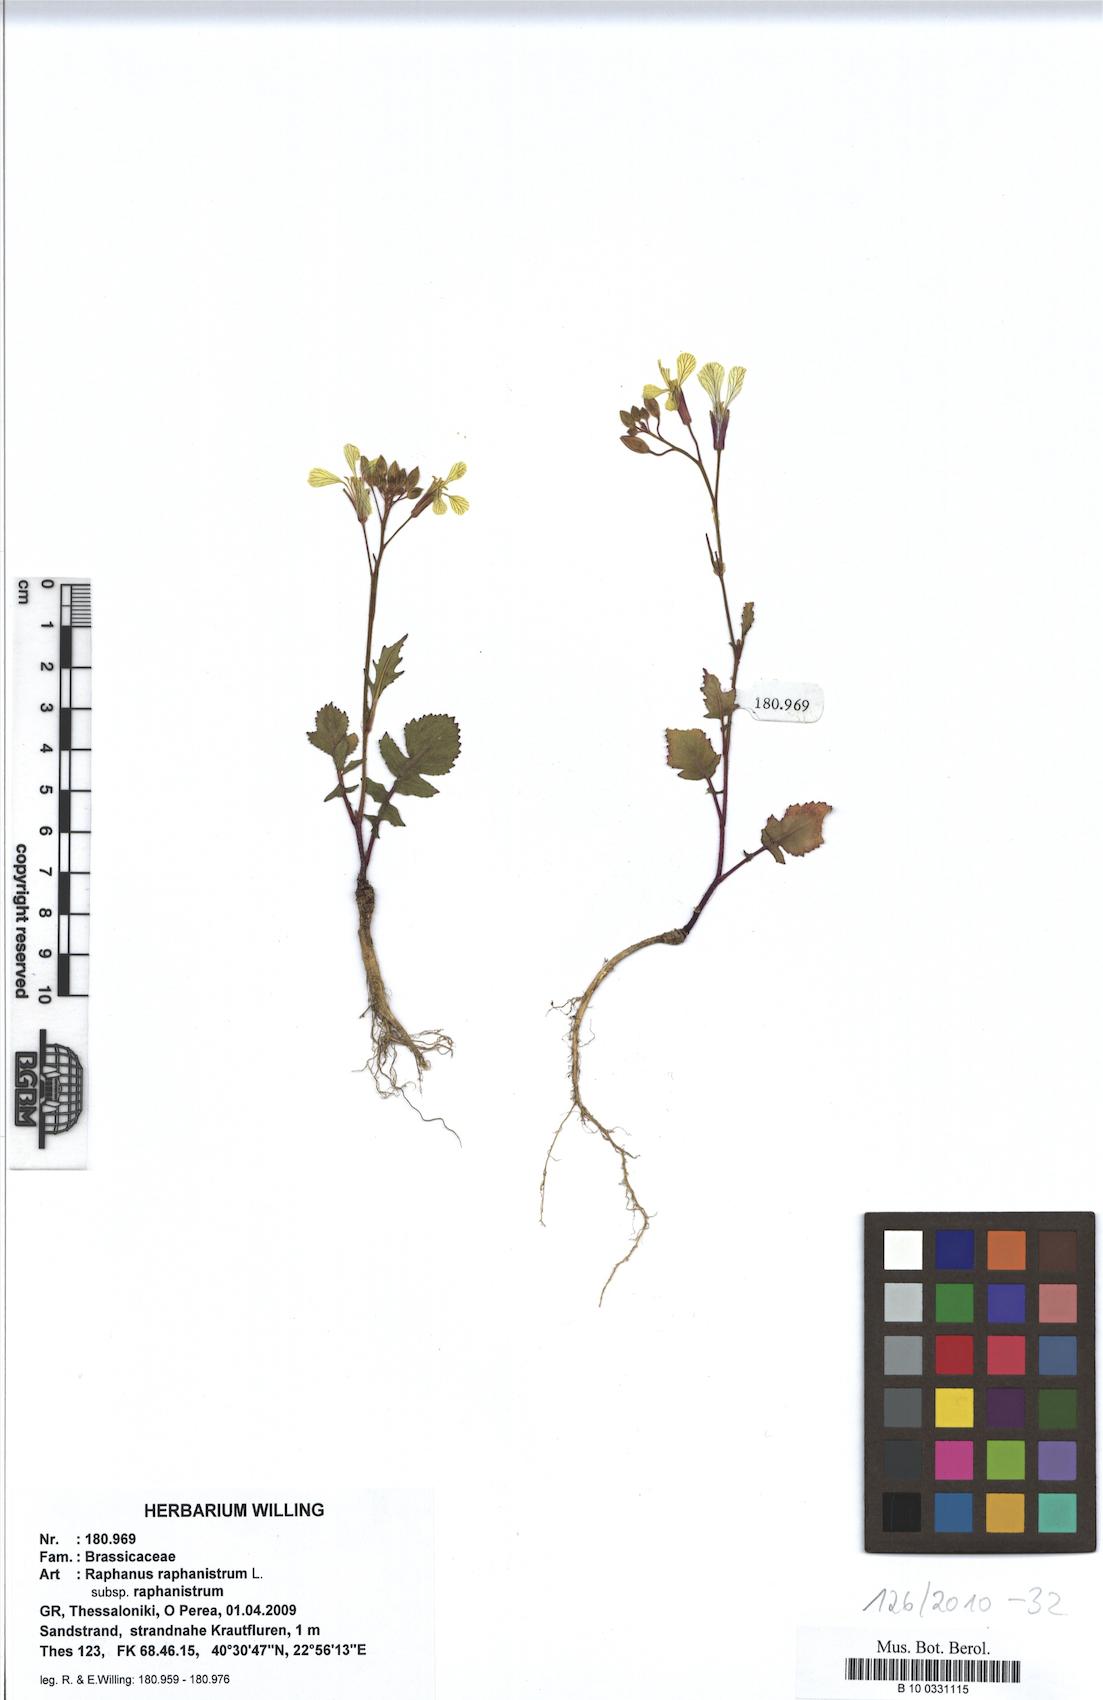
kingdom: Plantae
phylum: Tracheophyta
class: Magnoliopsida
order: Brassicales
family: Brassicaceae
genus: Raphanus
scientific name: Raphanus raphanistrum
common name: Wild radish
